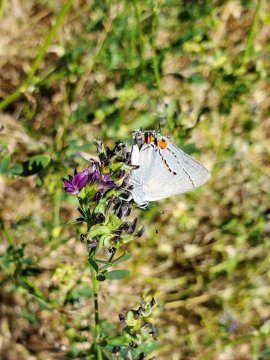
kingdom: Animalia
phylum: Arthropoda
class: Insecta
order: Lepidoptera
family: Lycaenidae
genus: Strymon
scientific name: Strymon melinus
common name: Gray Hairstreak
